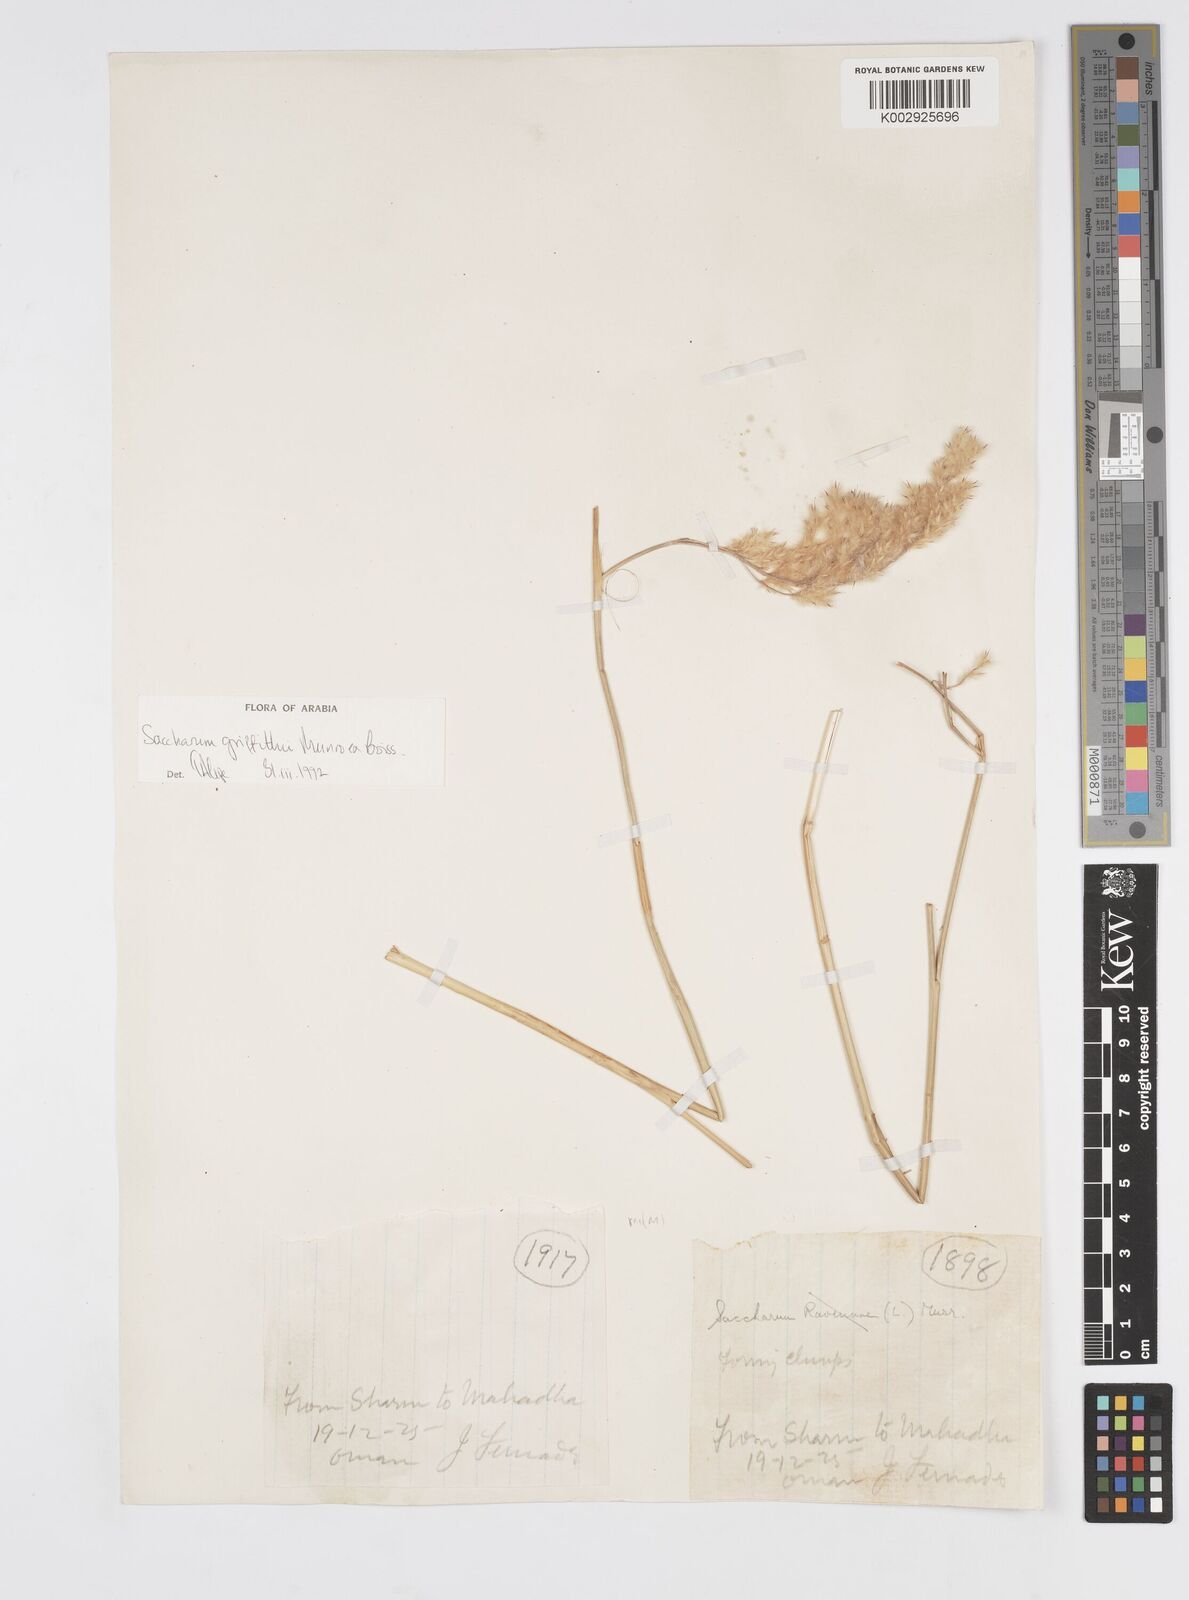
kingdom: Plantae
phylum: Tracheophyta
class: Liliopsida
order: Poales
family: Poaceae
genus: Saccharum
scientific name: Saccharum griffithii
